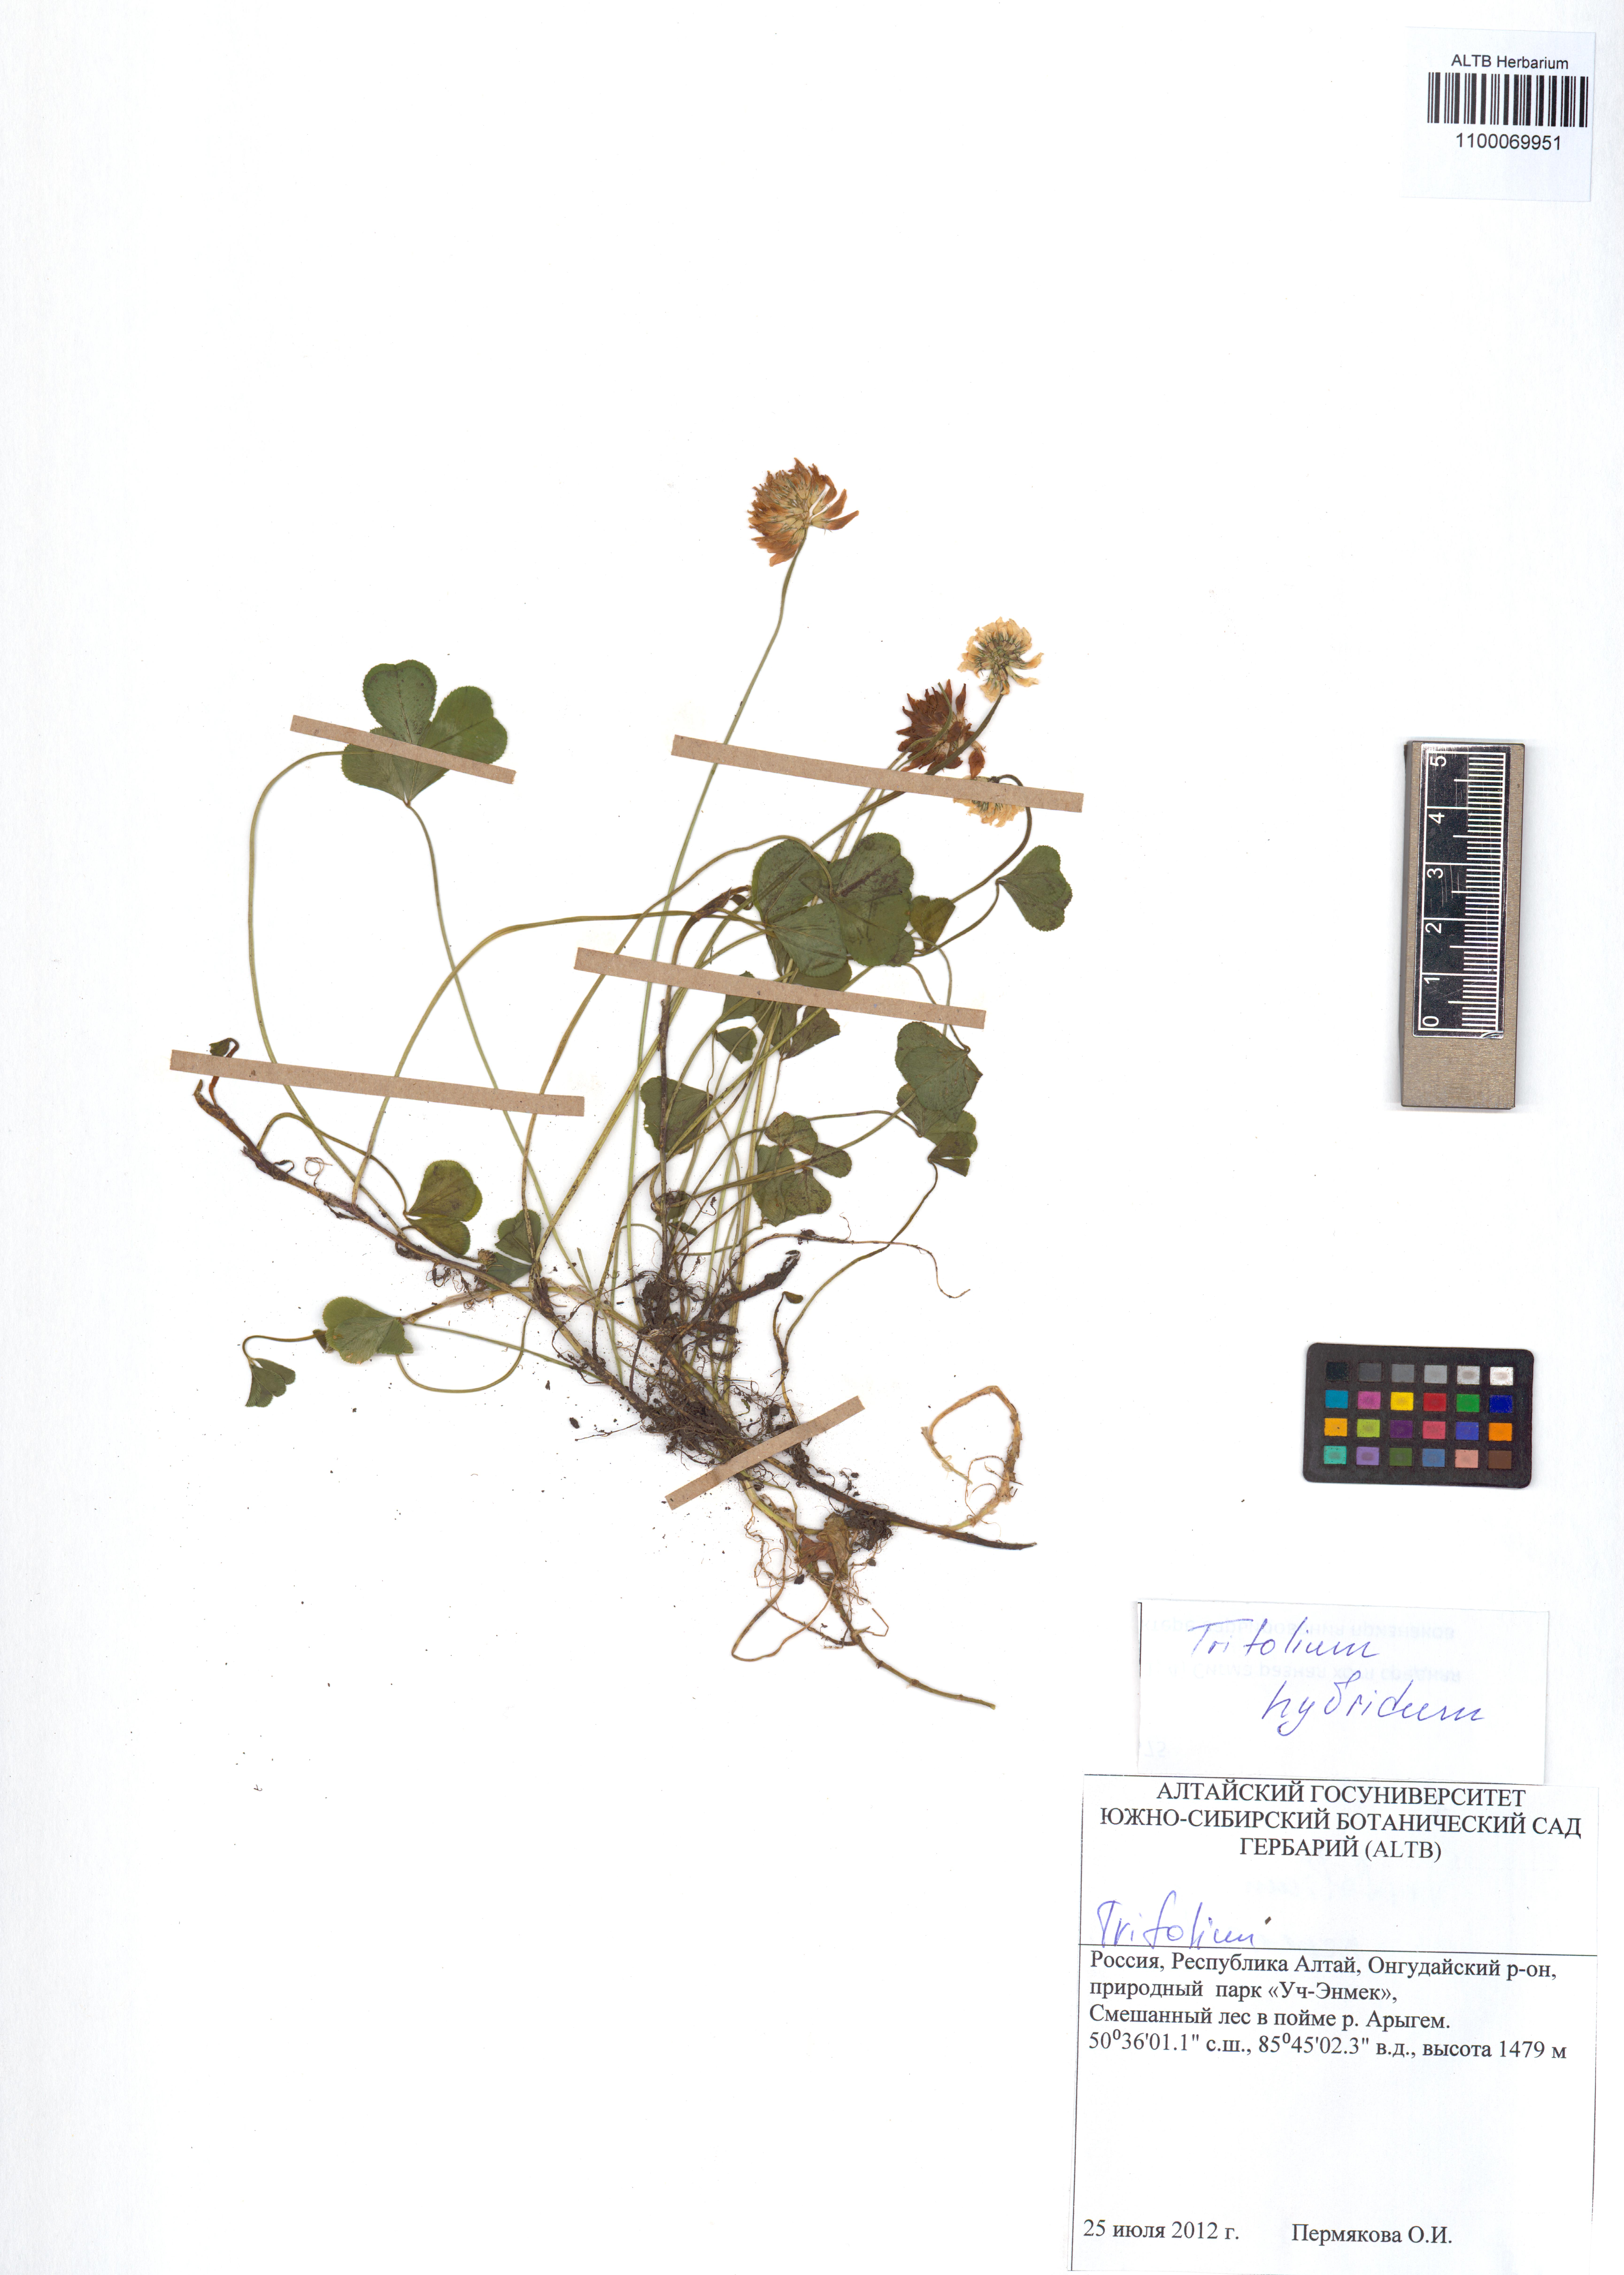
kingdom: Plantae
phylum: Tracheophyta
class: Magnoliopsida
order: Fabales
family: Fabaceae
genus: Trifolium
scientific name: Trifolium hybridum
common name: Alsike clover
